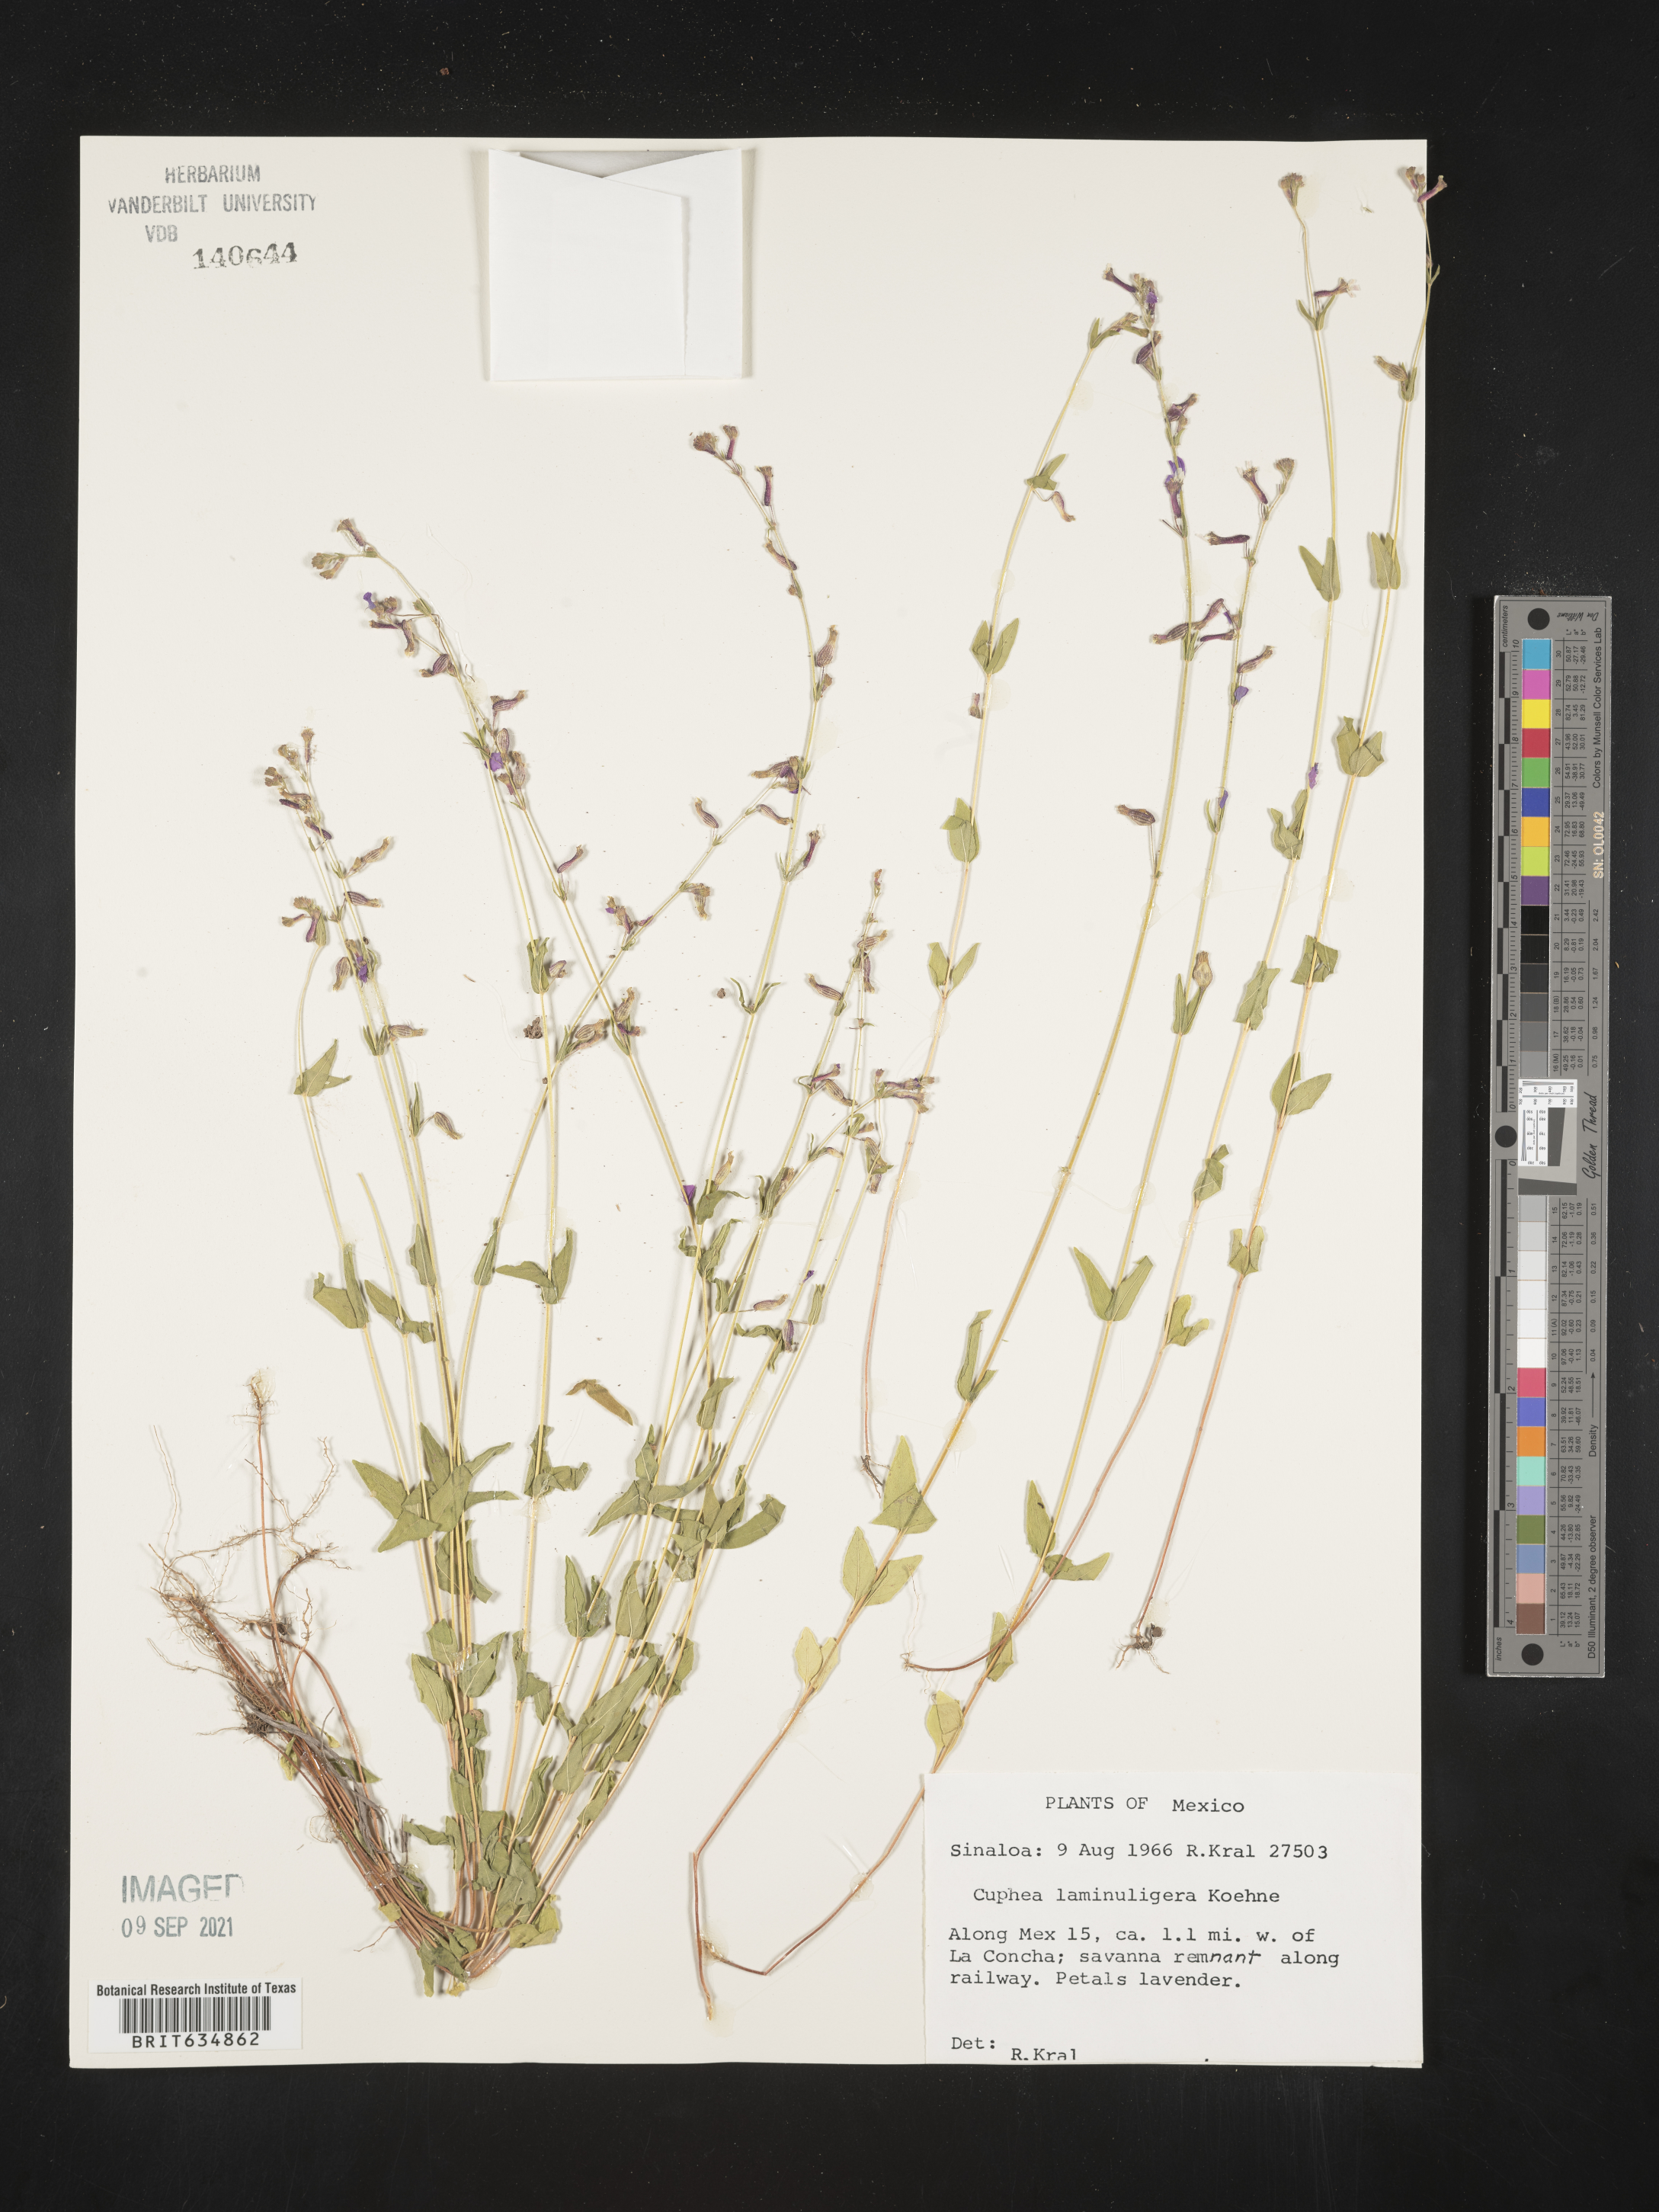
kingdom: Plantae
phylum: Tracheophyta
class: Magnoliopsida
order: Myrtales
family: Lythraceae
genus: Cuphea
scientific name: Cuphea
